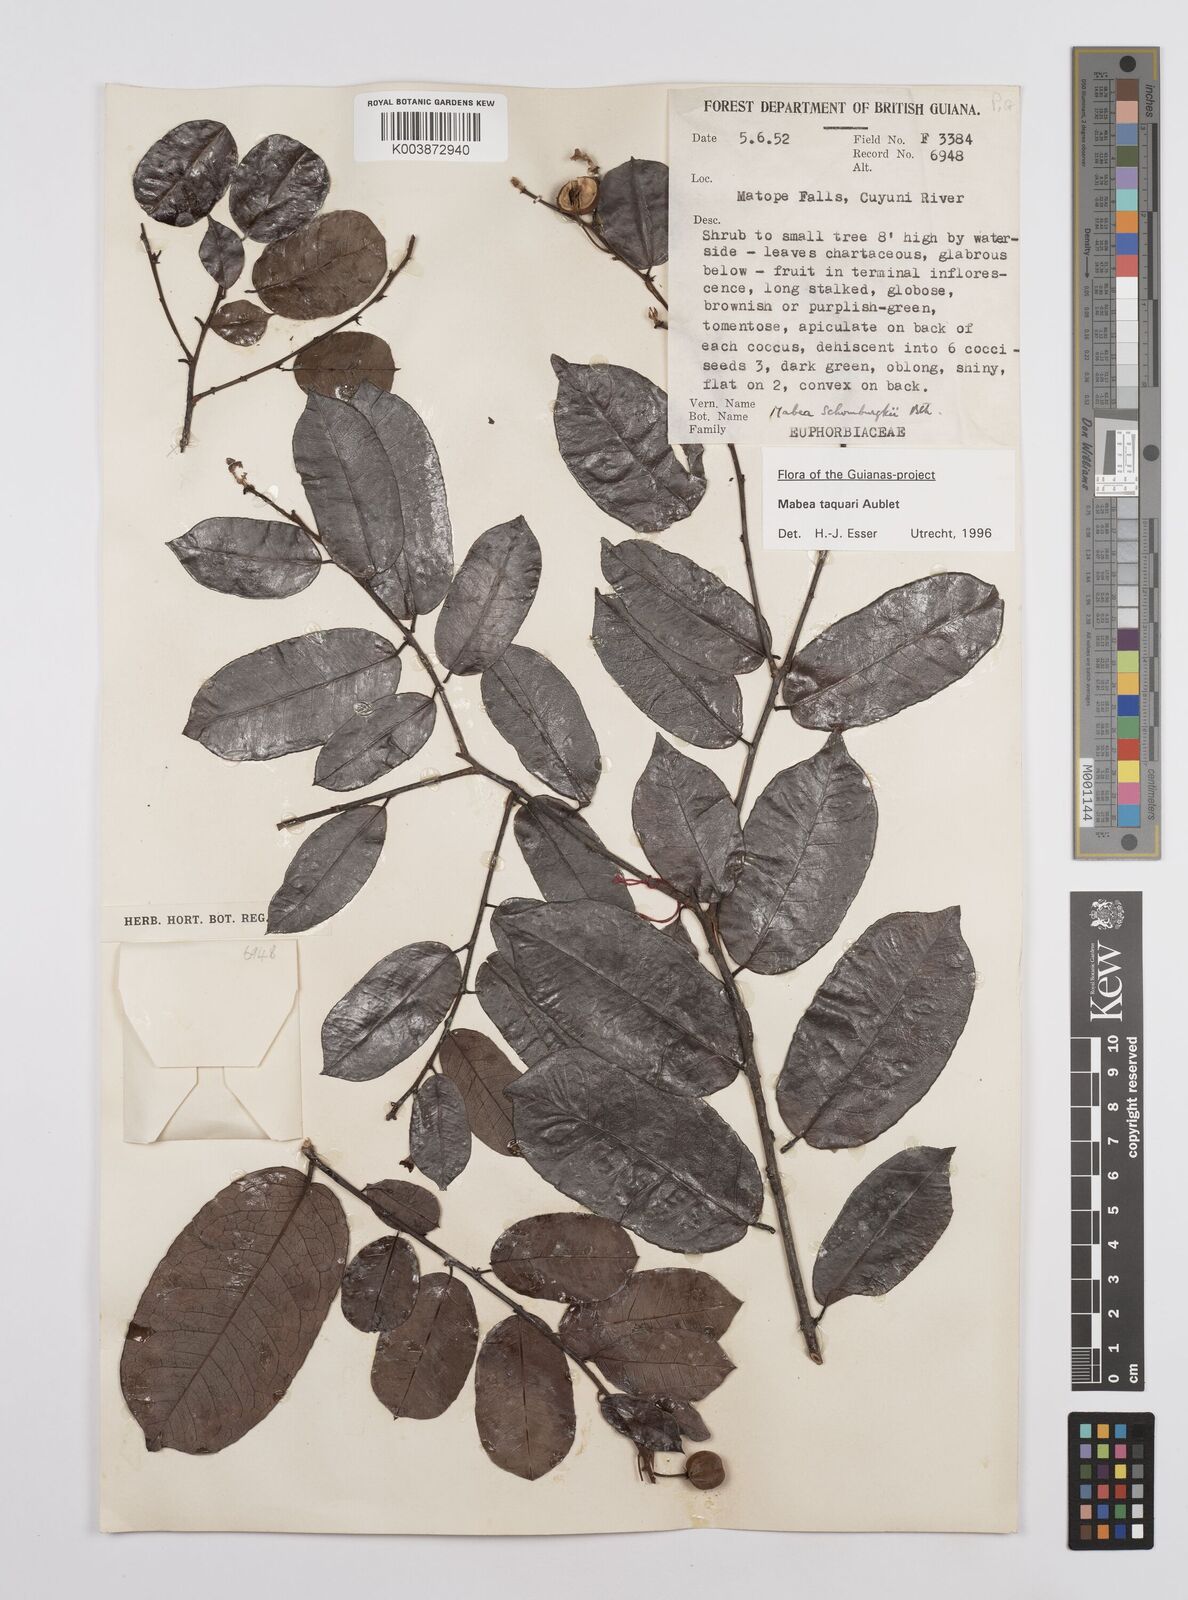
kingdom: Plantae
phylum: Tracheophyta
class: Magnoliopsida
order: Malpighiales
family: Euphorbiaceae
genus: Mabea
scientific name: Mabea taquari
